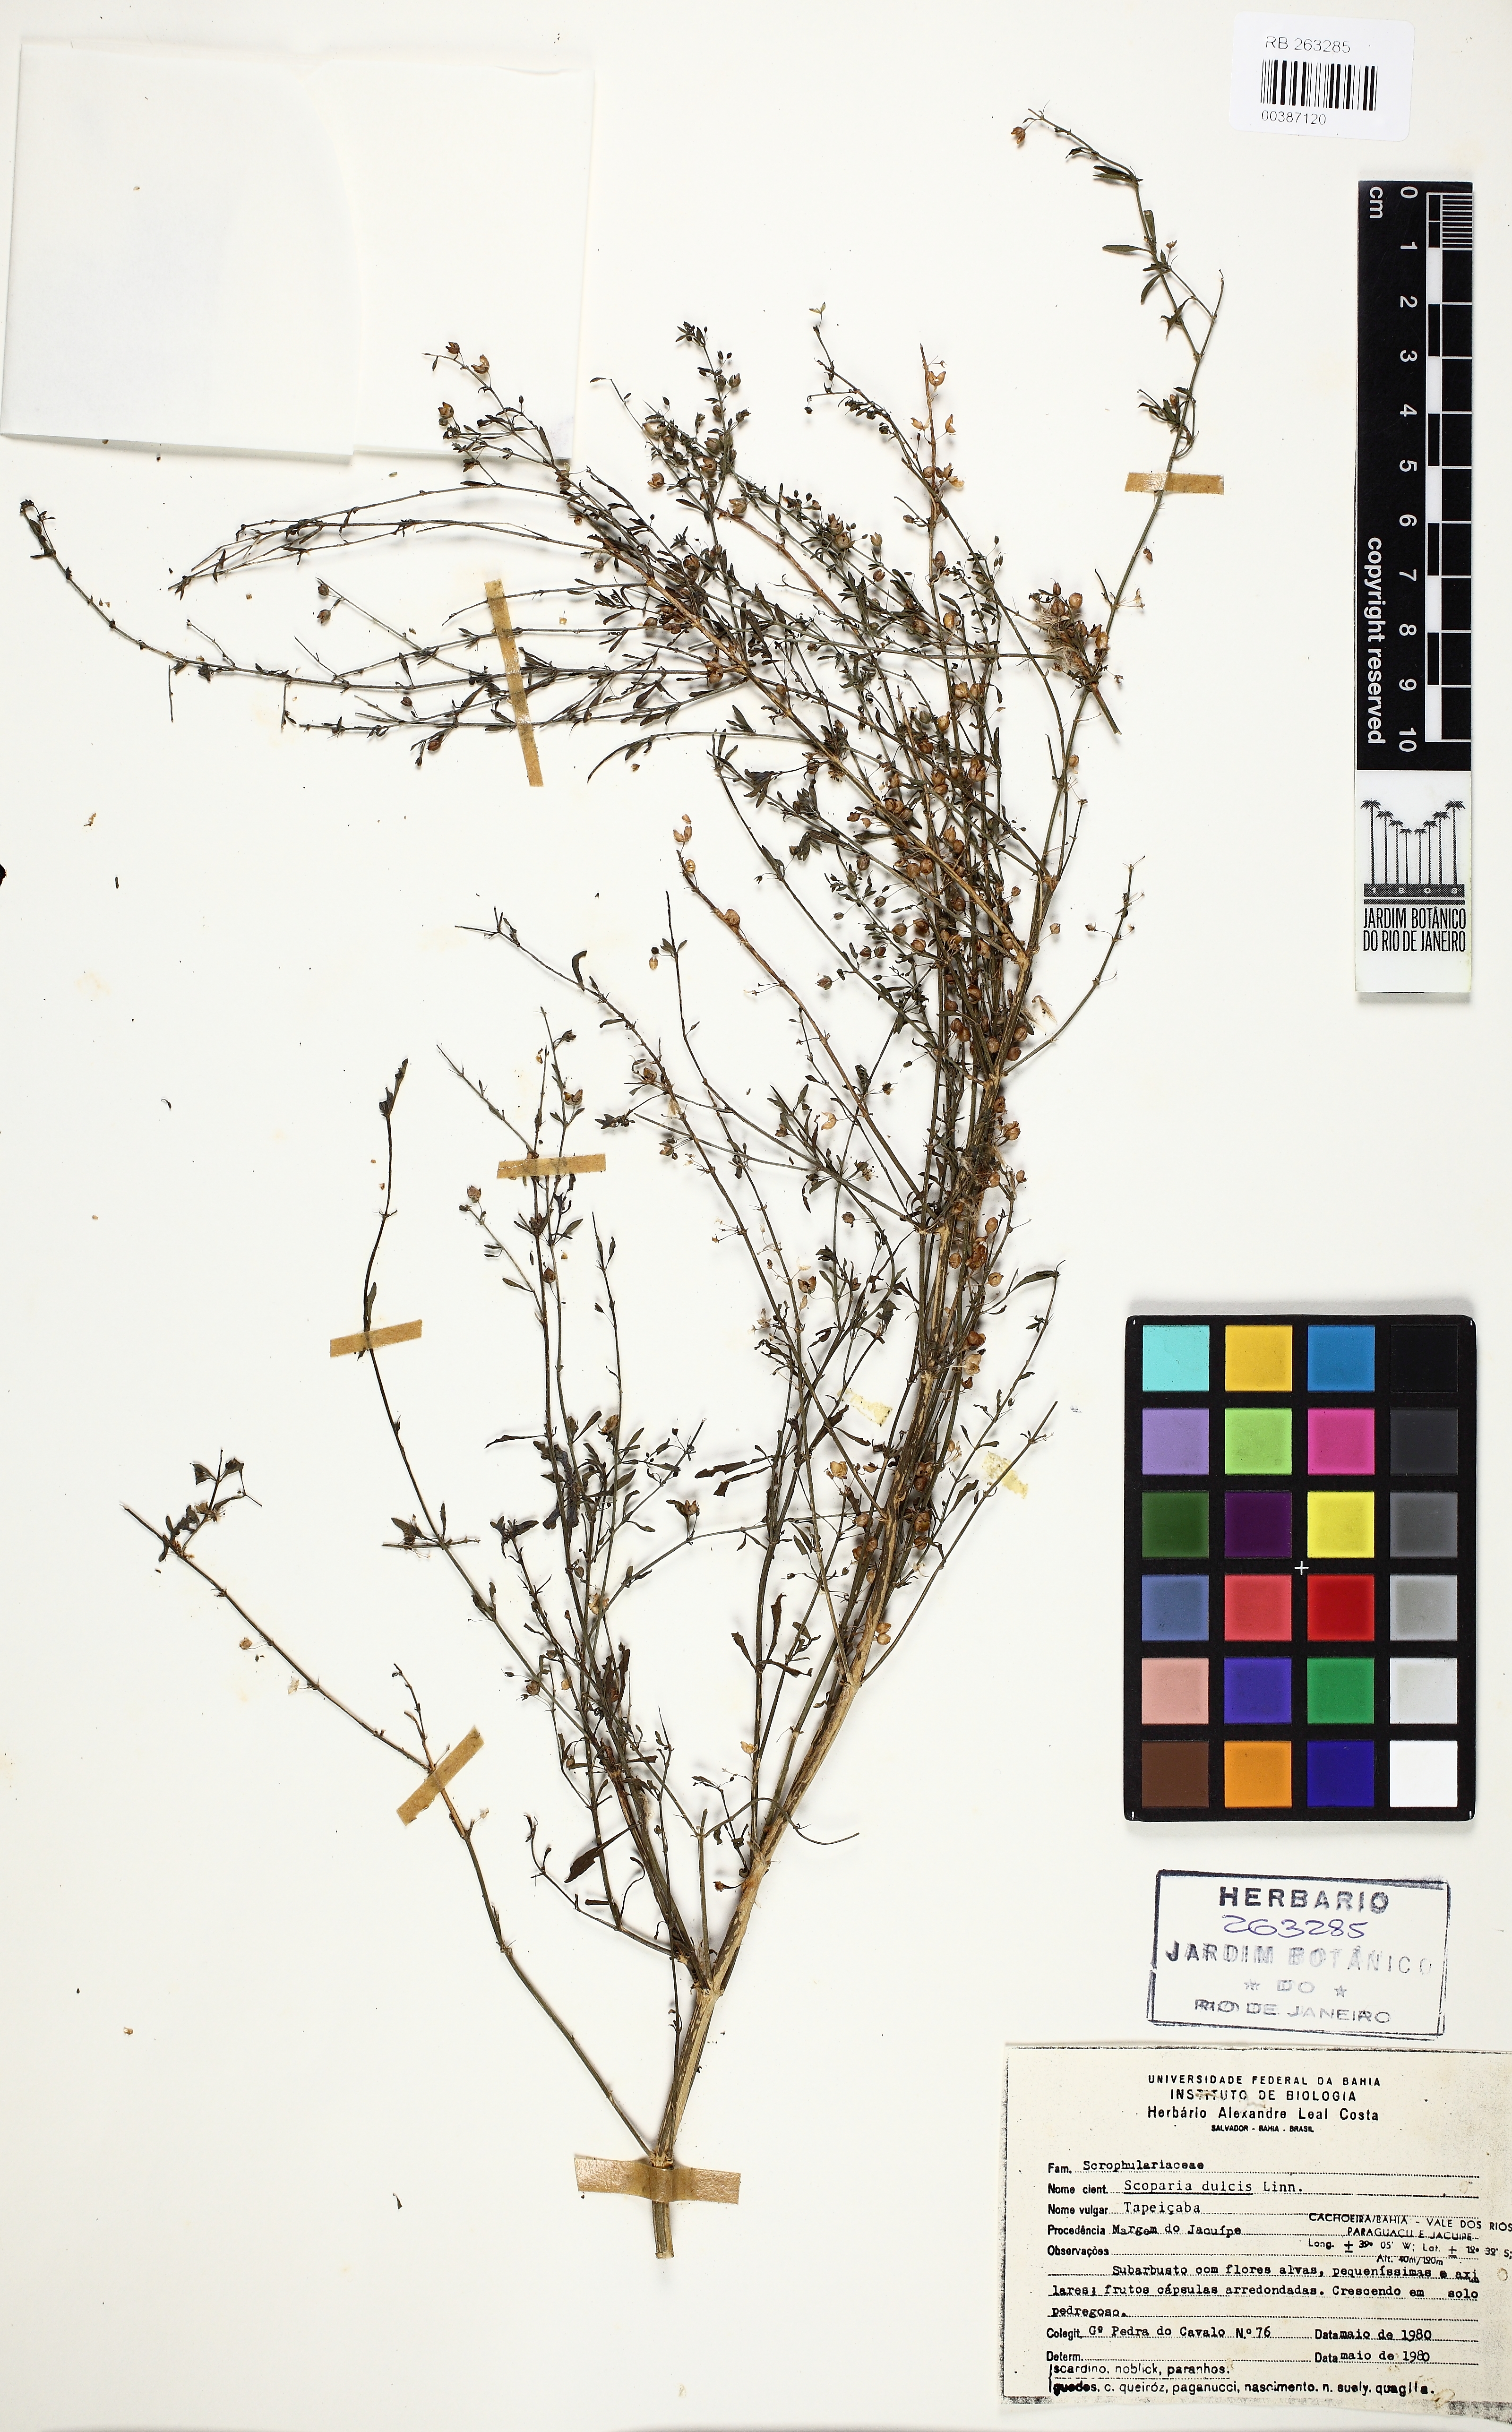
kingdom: Plantae
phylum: Tracheophyta
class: Magnoliopsida
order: Lamiales
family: Plantaginaceae
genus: Scoparia
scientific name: Scoparia dulcis
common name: Scoparia-weed
